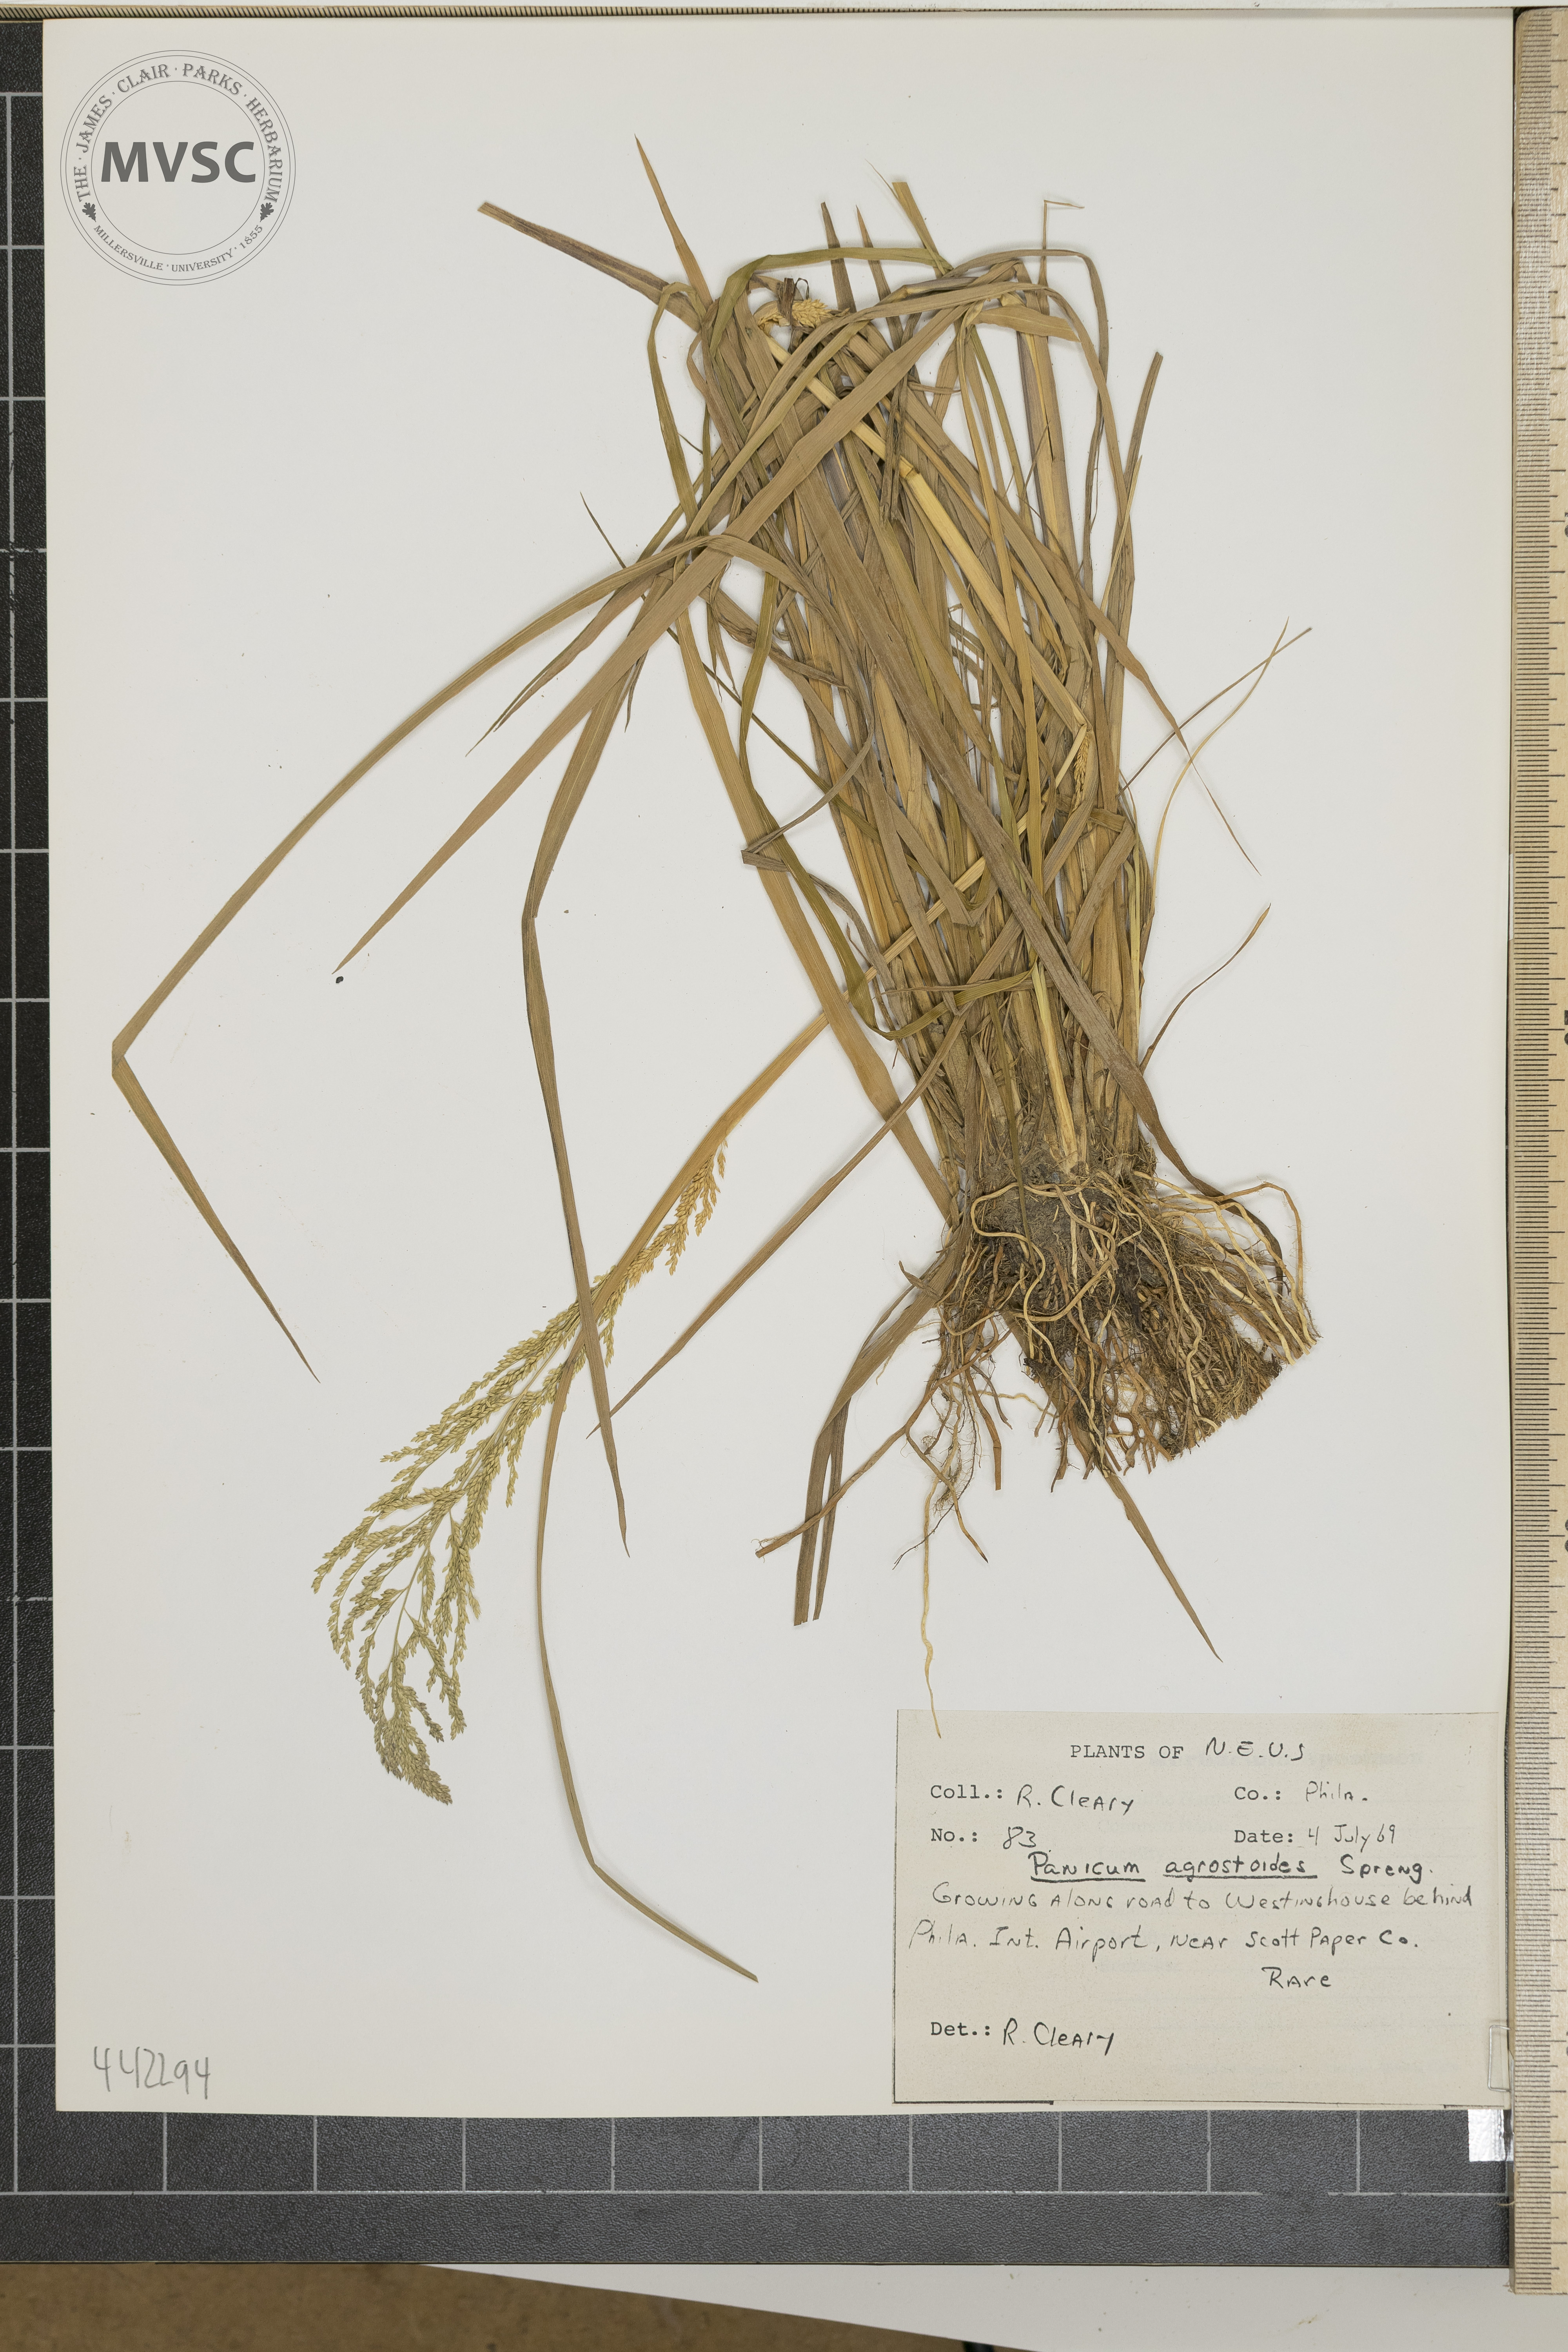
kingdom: Plantae
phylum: Tracheophyta
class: Liliopsida
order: Poales
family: Poaceae
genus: Steinchisma
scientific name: Steinchisma laxum
